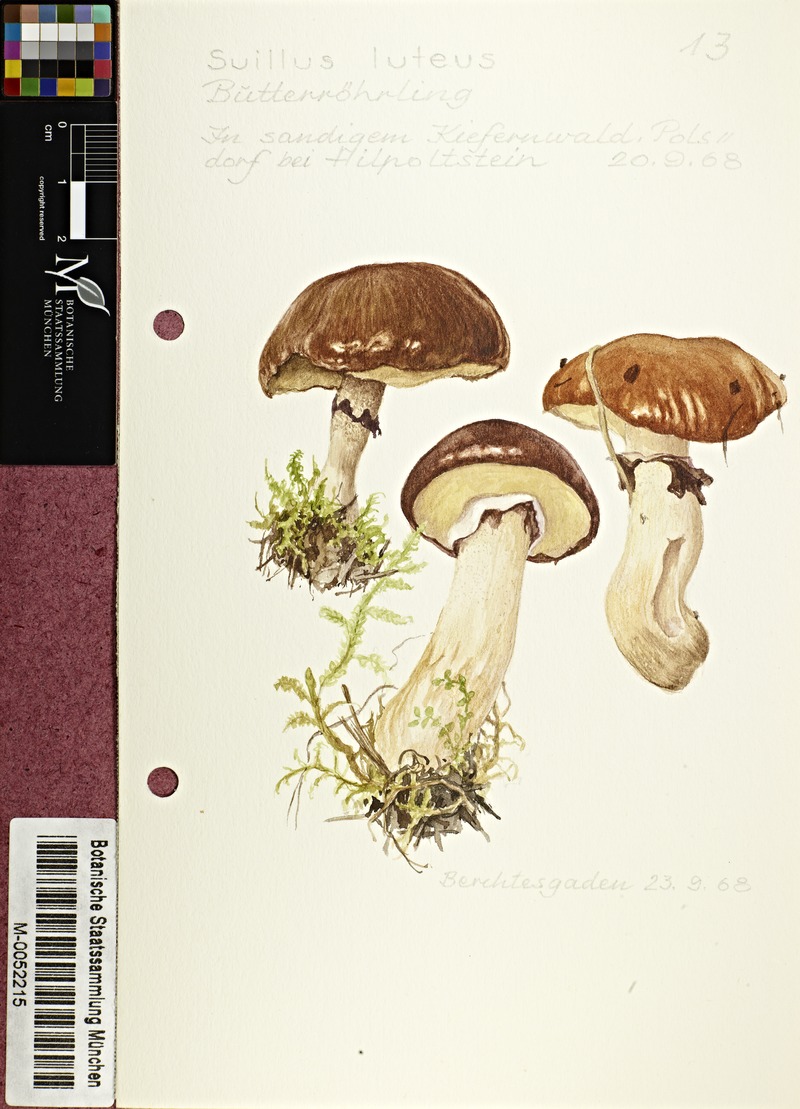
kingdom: Fungi
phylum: Basidiomycota
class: Agaricomycetes
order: Boletales
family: Suillaceae
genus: Suillus
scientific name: Suillus luteus
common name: Slippery jack
